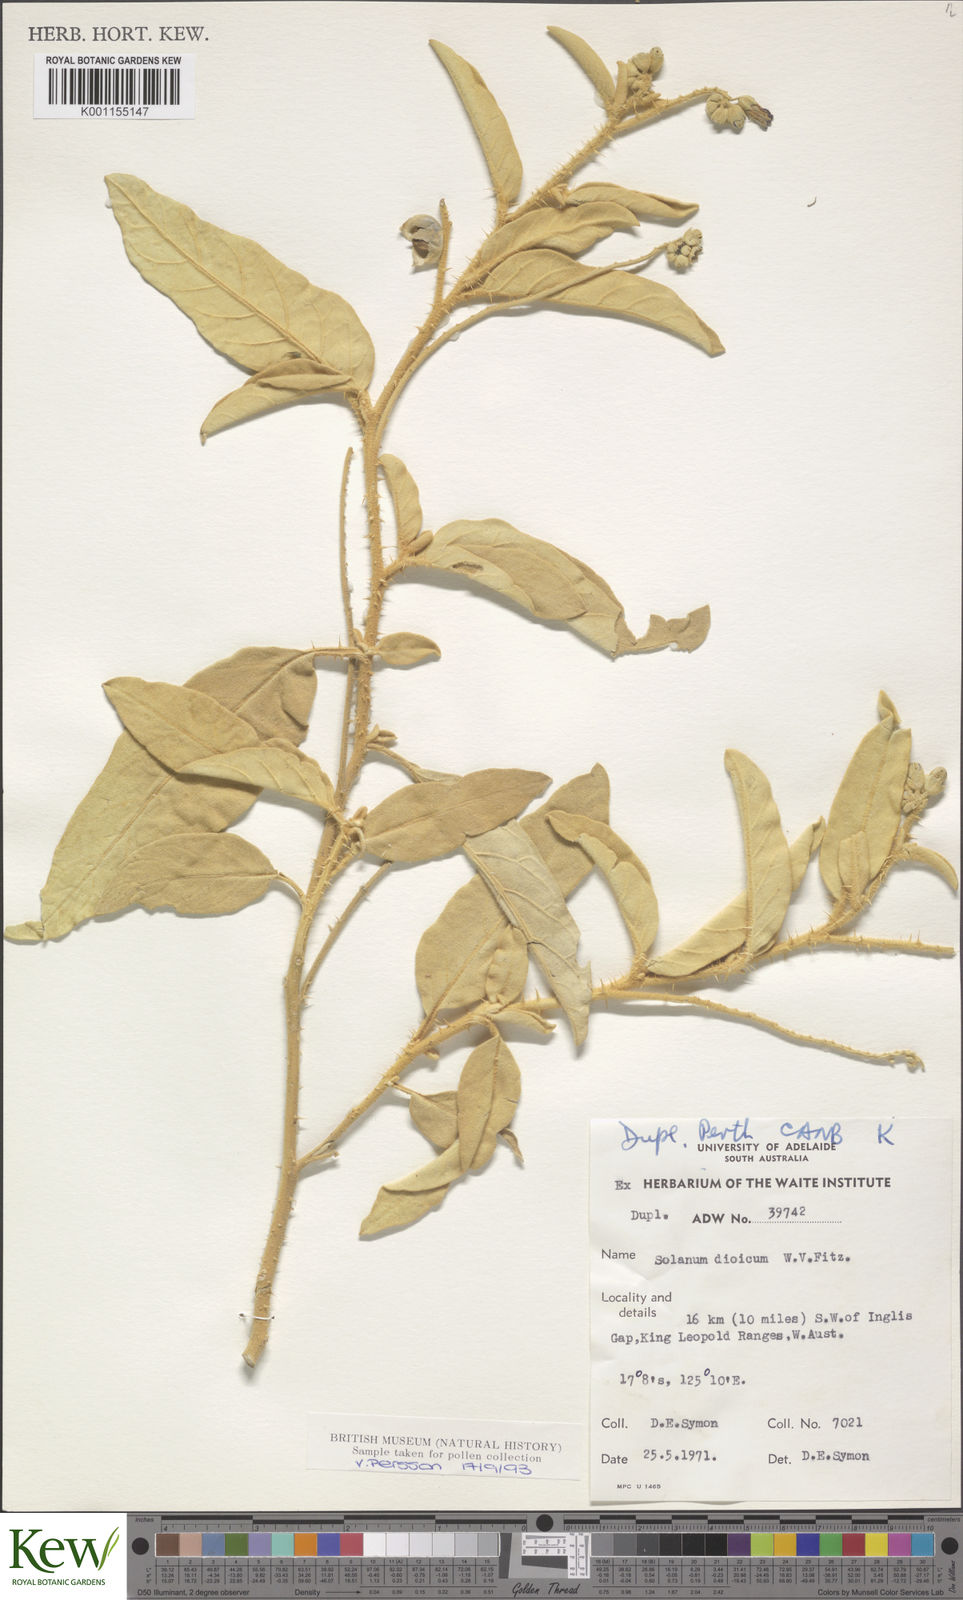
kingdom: Plantae
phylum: Tracheophyta
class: Magnoliopsida
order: Solanales
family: Solanaceae
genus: Solanum
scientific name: Solanum dioicum
